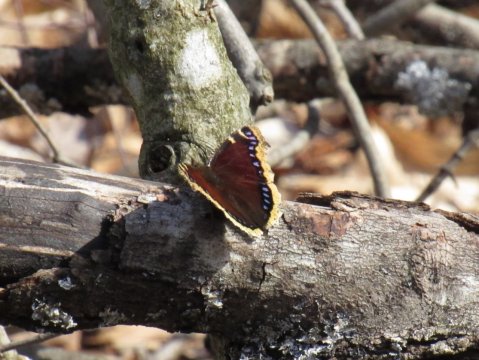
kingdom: Animalia
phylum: Arthropoda
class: Insecta
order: Lepidoptera
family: Nymphalidae
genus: Nymphalis
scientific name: Nymphalis antiopa
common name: Mourning Cloak
